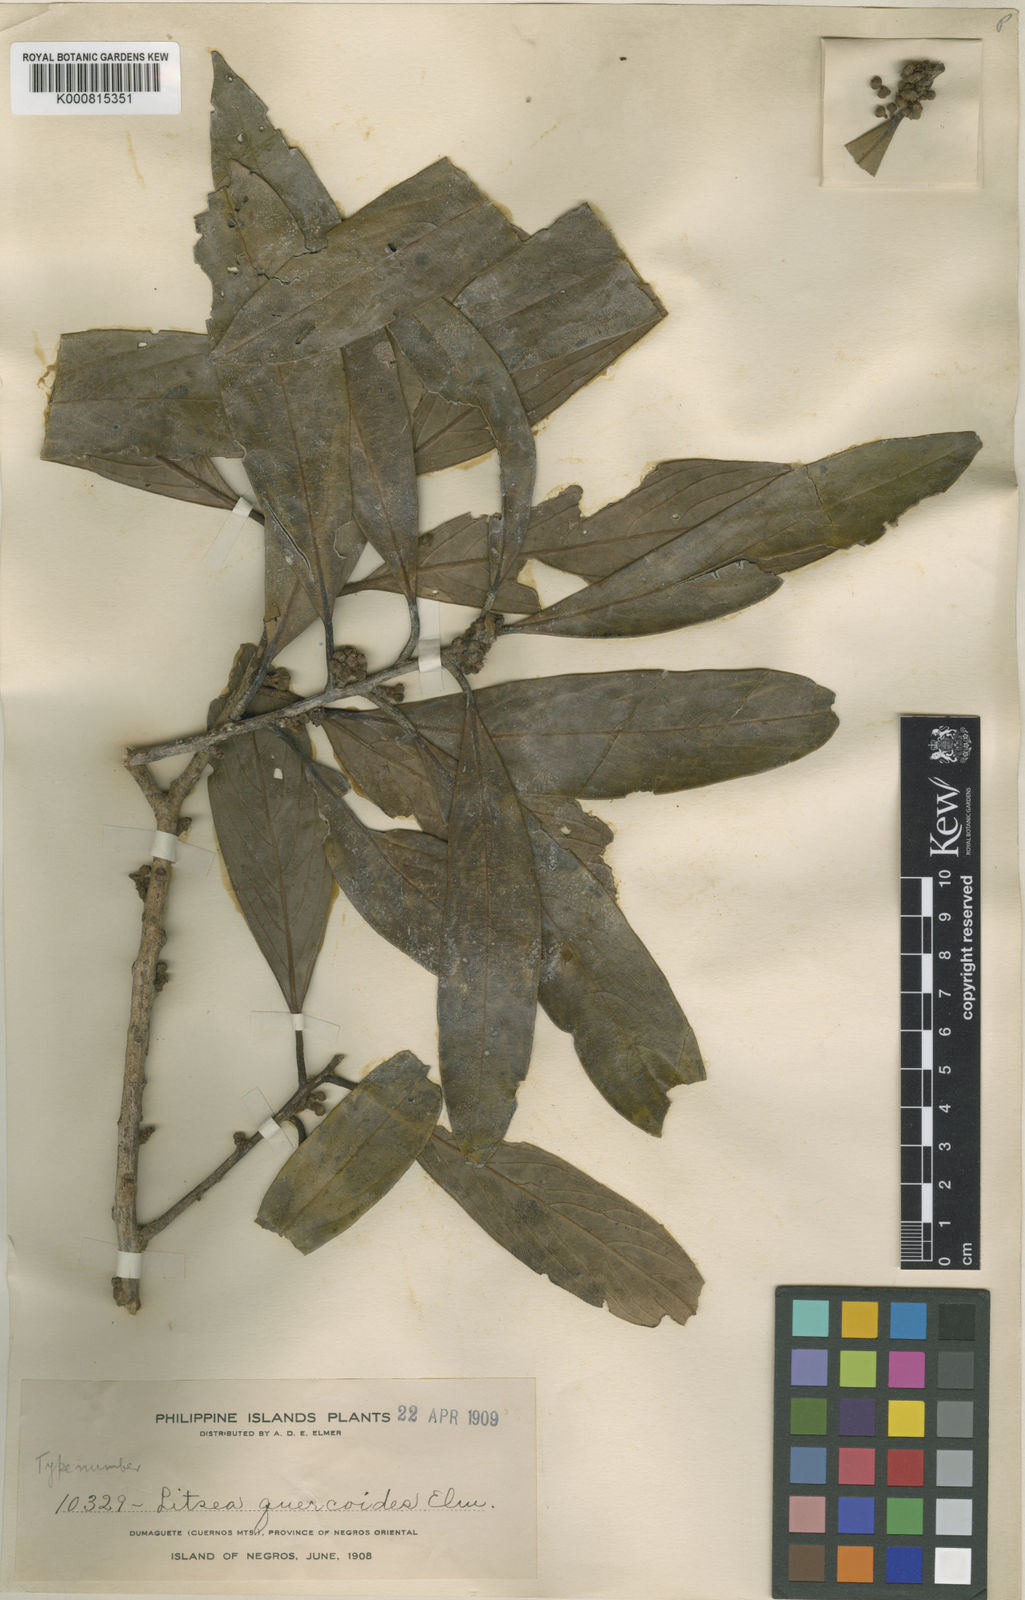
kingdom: Plantae
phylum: Tracheophyta
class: Magnoliopsida
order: Laurales
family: Lauraceae
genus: Litsea
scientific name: Litsea quercoides
